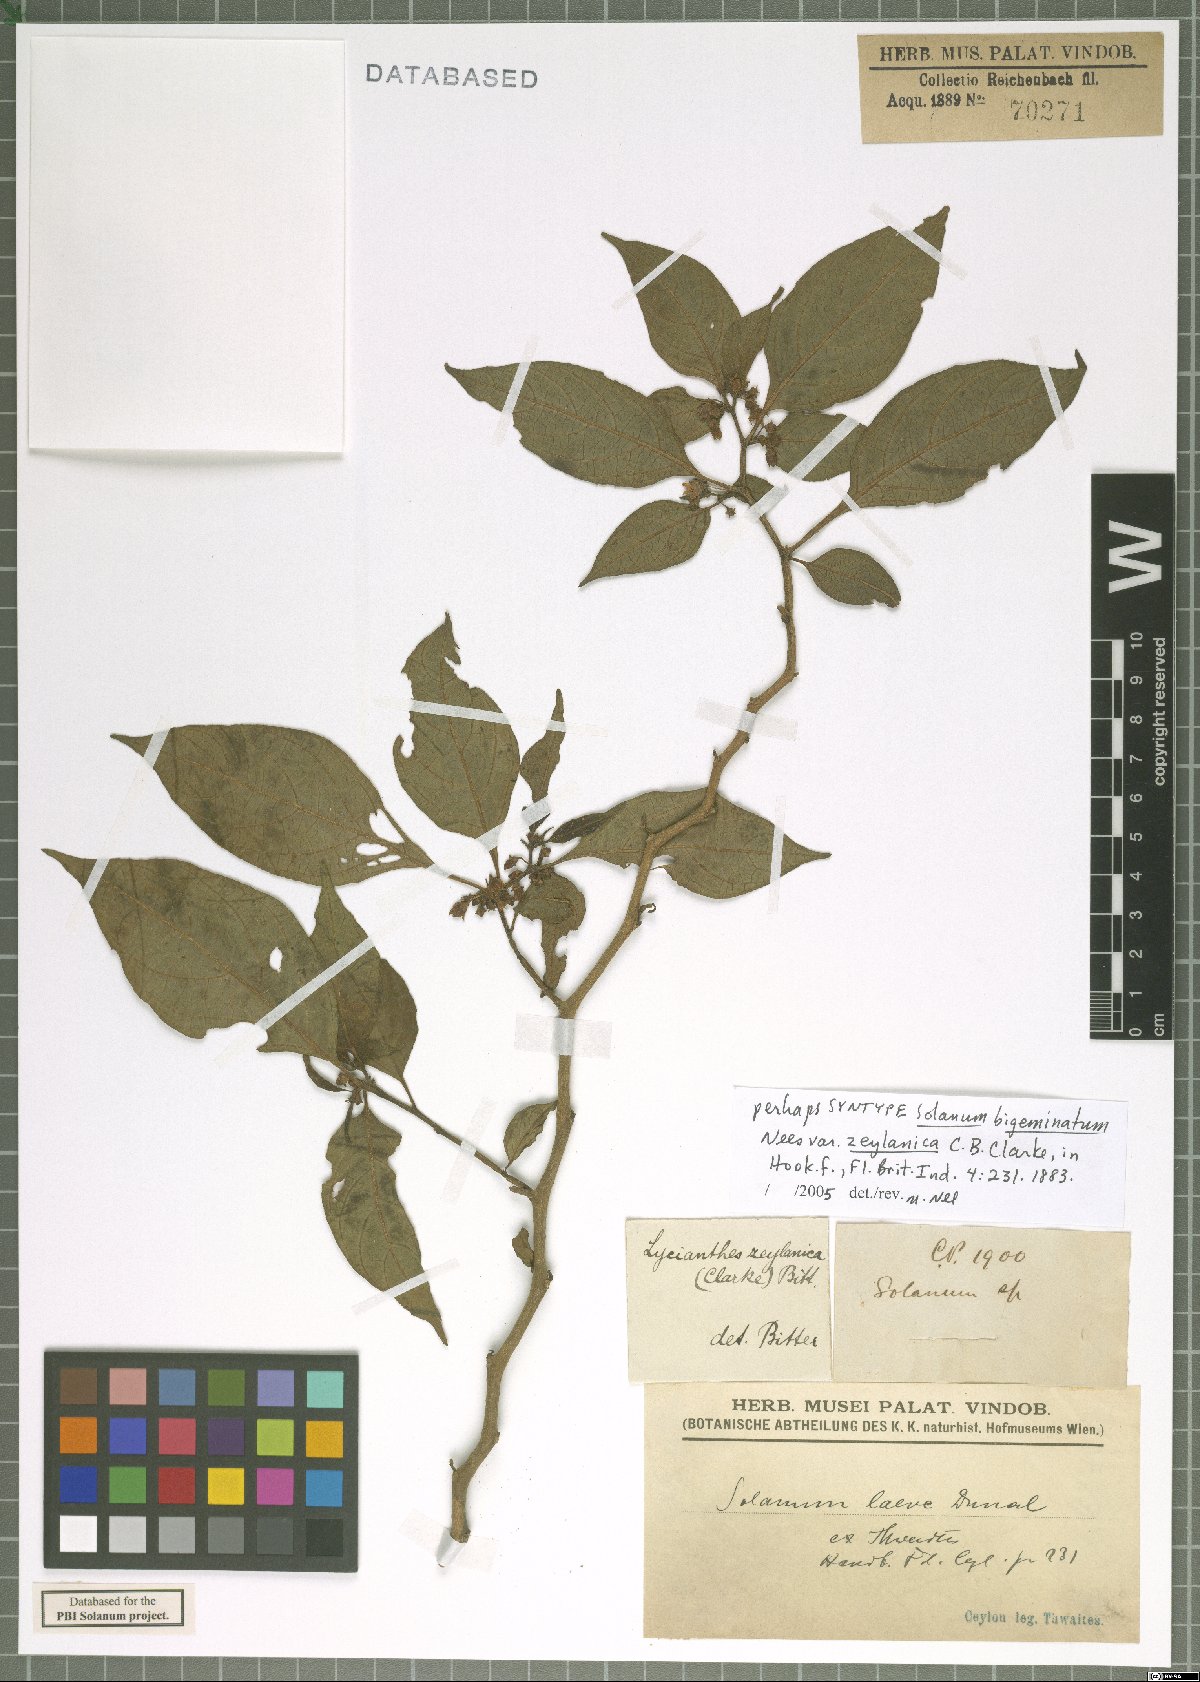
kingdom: Plantae
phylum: Tracheophyta
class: Magnoliopsida
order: Solanales
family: Solanaceae
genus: Lycianthes
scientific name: Lycianthes laevis
